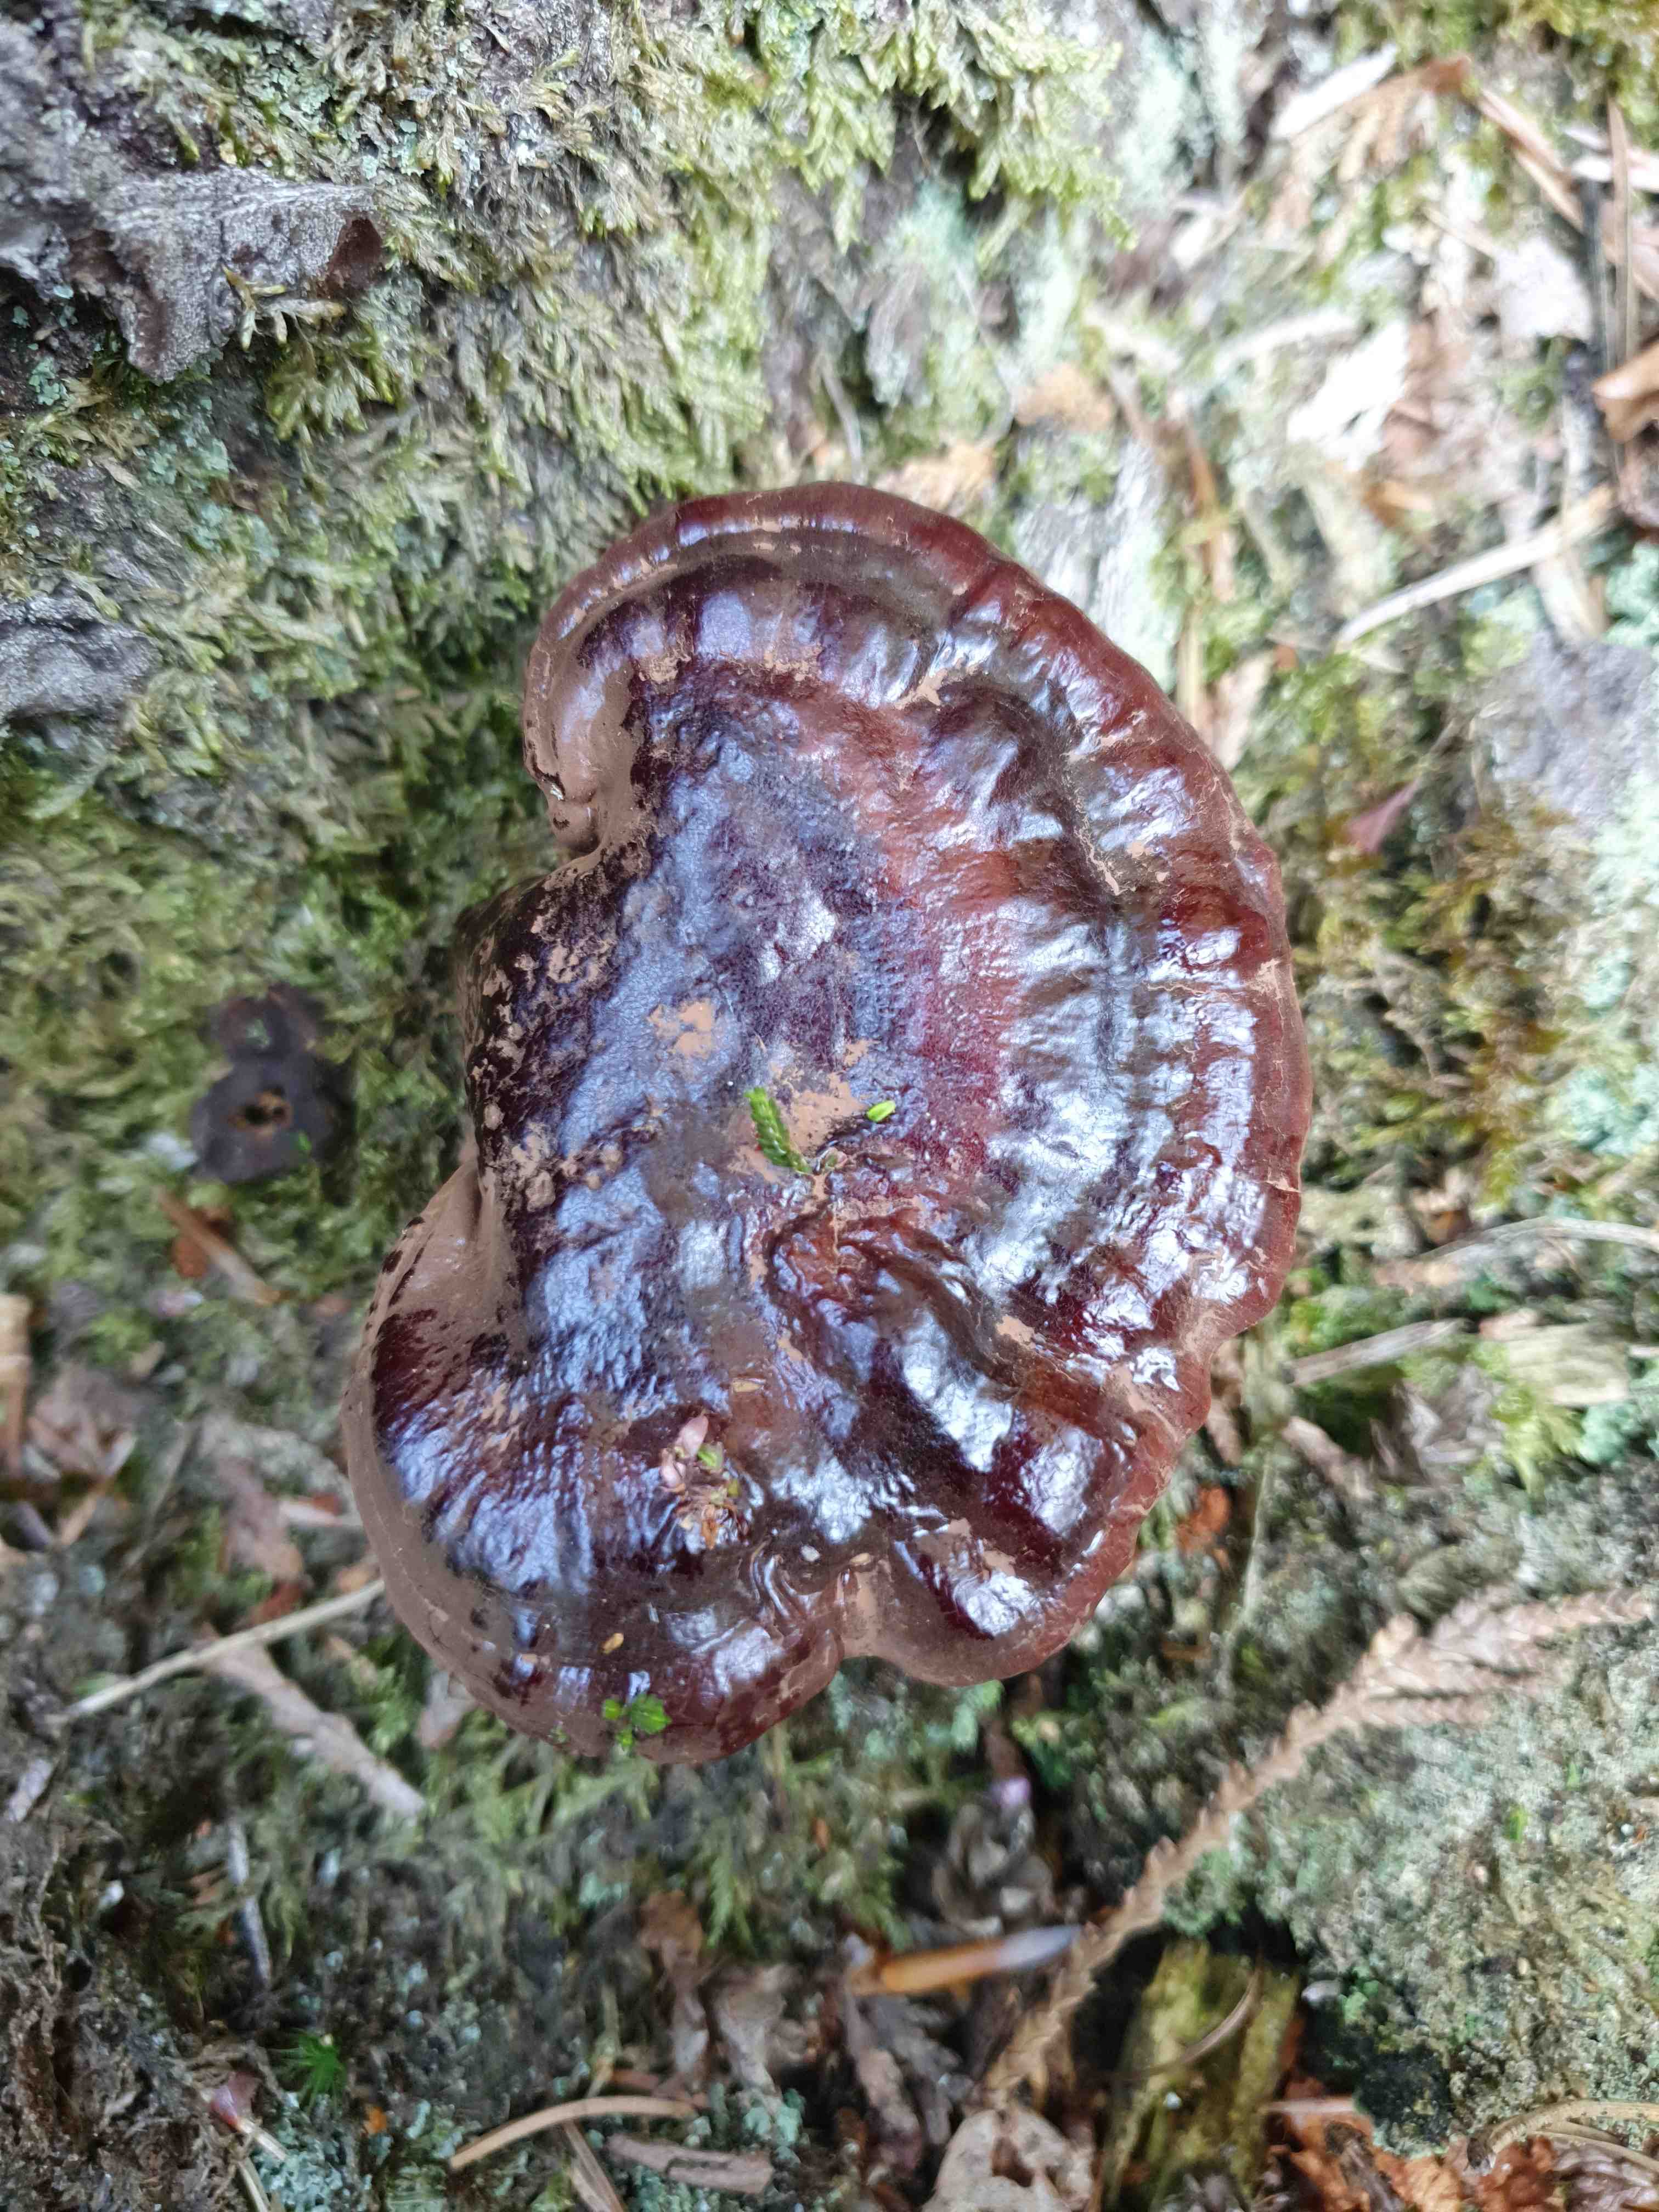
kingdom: Fungi
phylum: Basidiomycota
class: Agaricomycetes
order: Polyporales
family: Polyporaceae
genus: Ganoderma
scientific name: Ganoderma lucidum
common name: skinnende lakporesvamp
